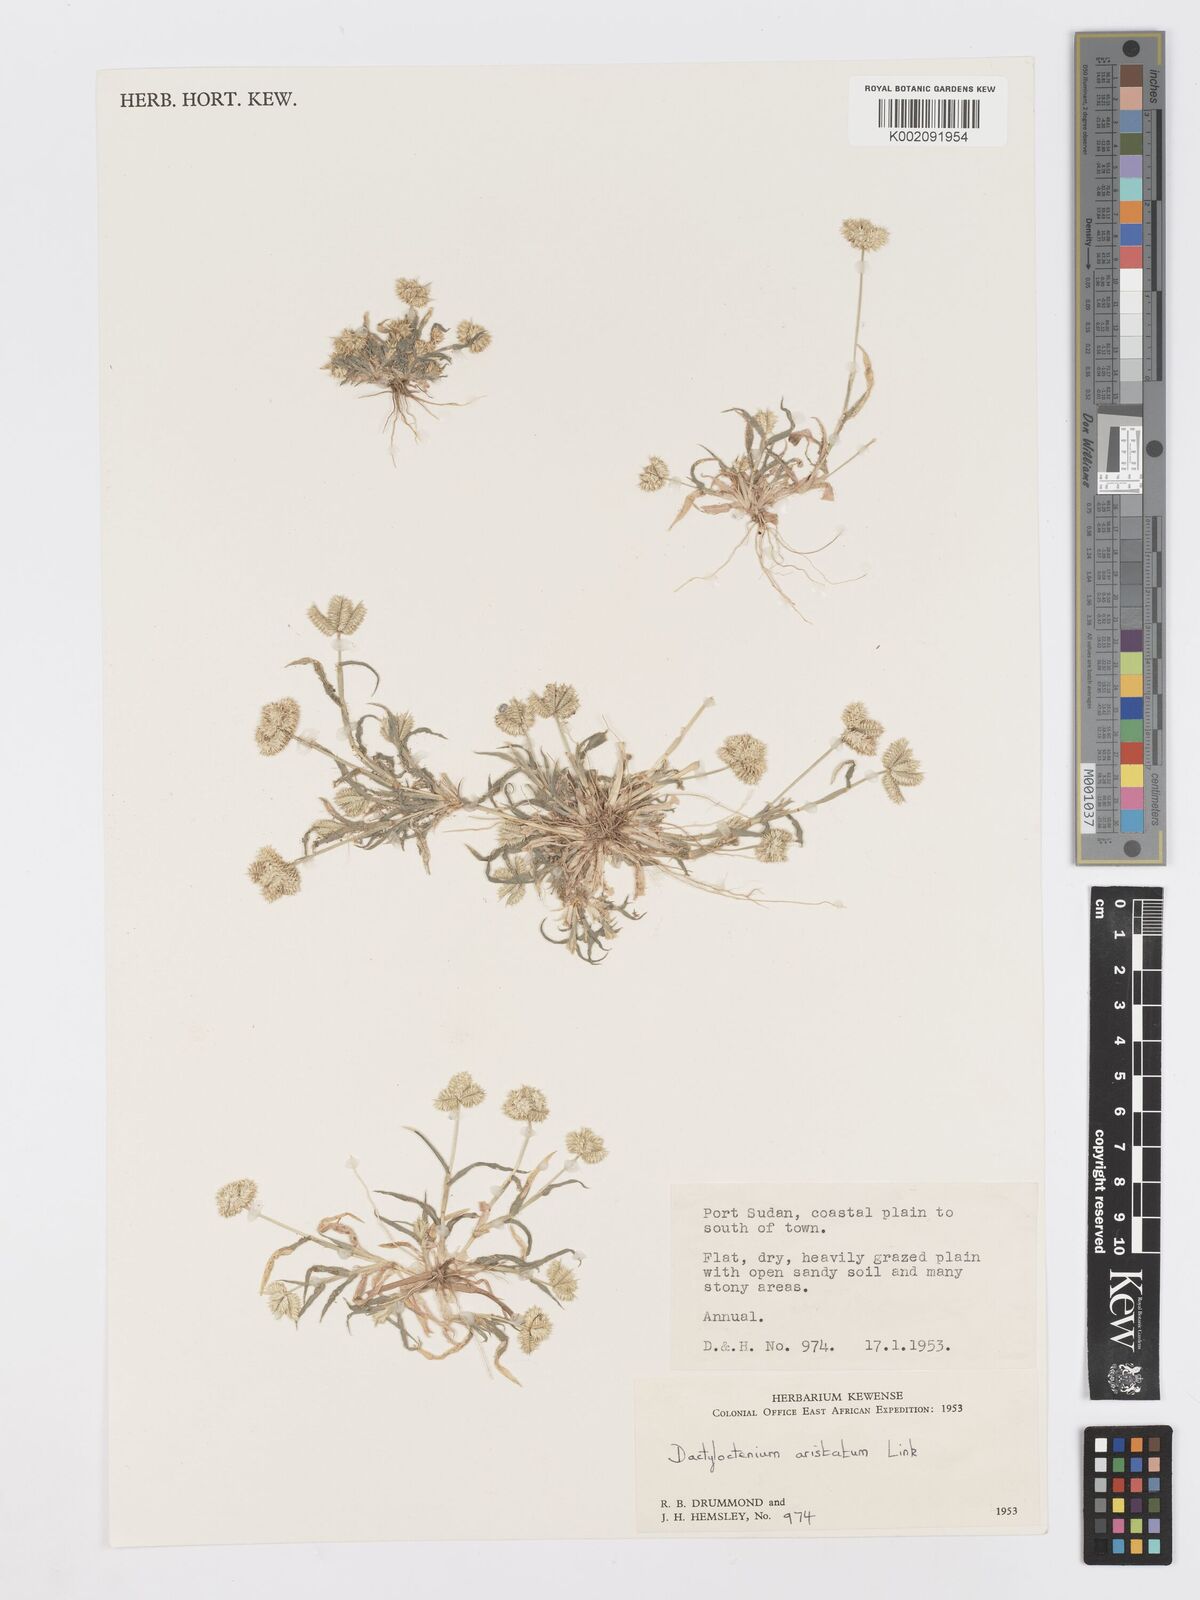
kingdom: Plantae
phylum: Tracheophyta
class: Liliopsida
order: Poales
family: Poaceae
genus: Dactyloctenium
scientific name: Dactyloctenium aristatum
